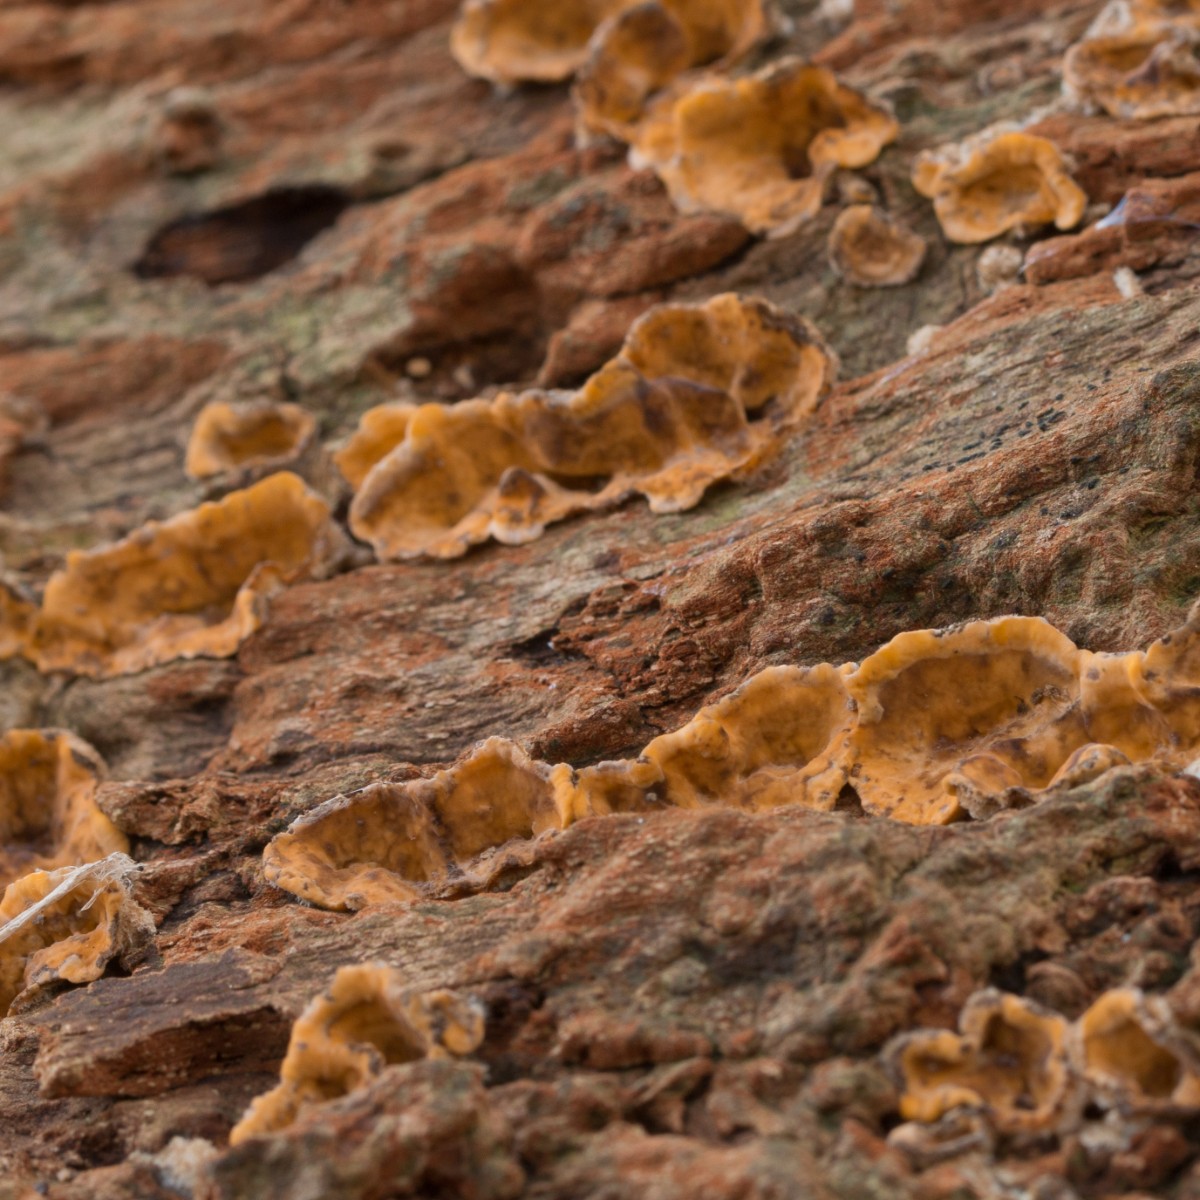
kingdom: Fungi
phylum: Basidiomycota
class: Agaricomycetes
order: Russulales
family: Stereaceae
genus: Stereum
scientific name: Stereum hirsutum
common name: håret lædersvamp
